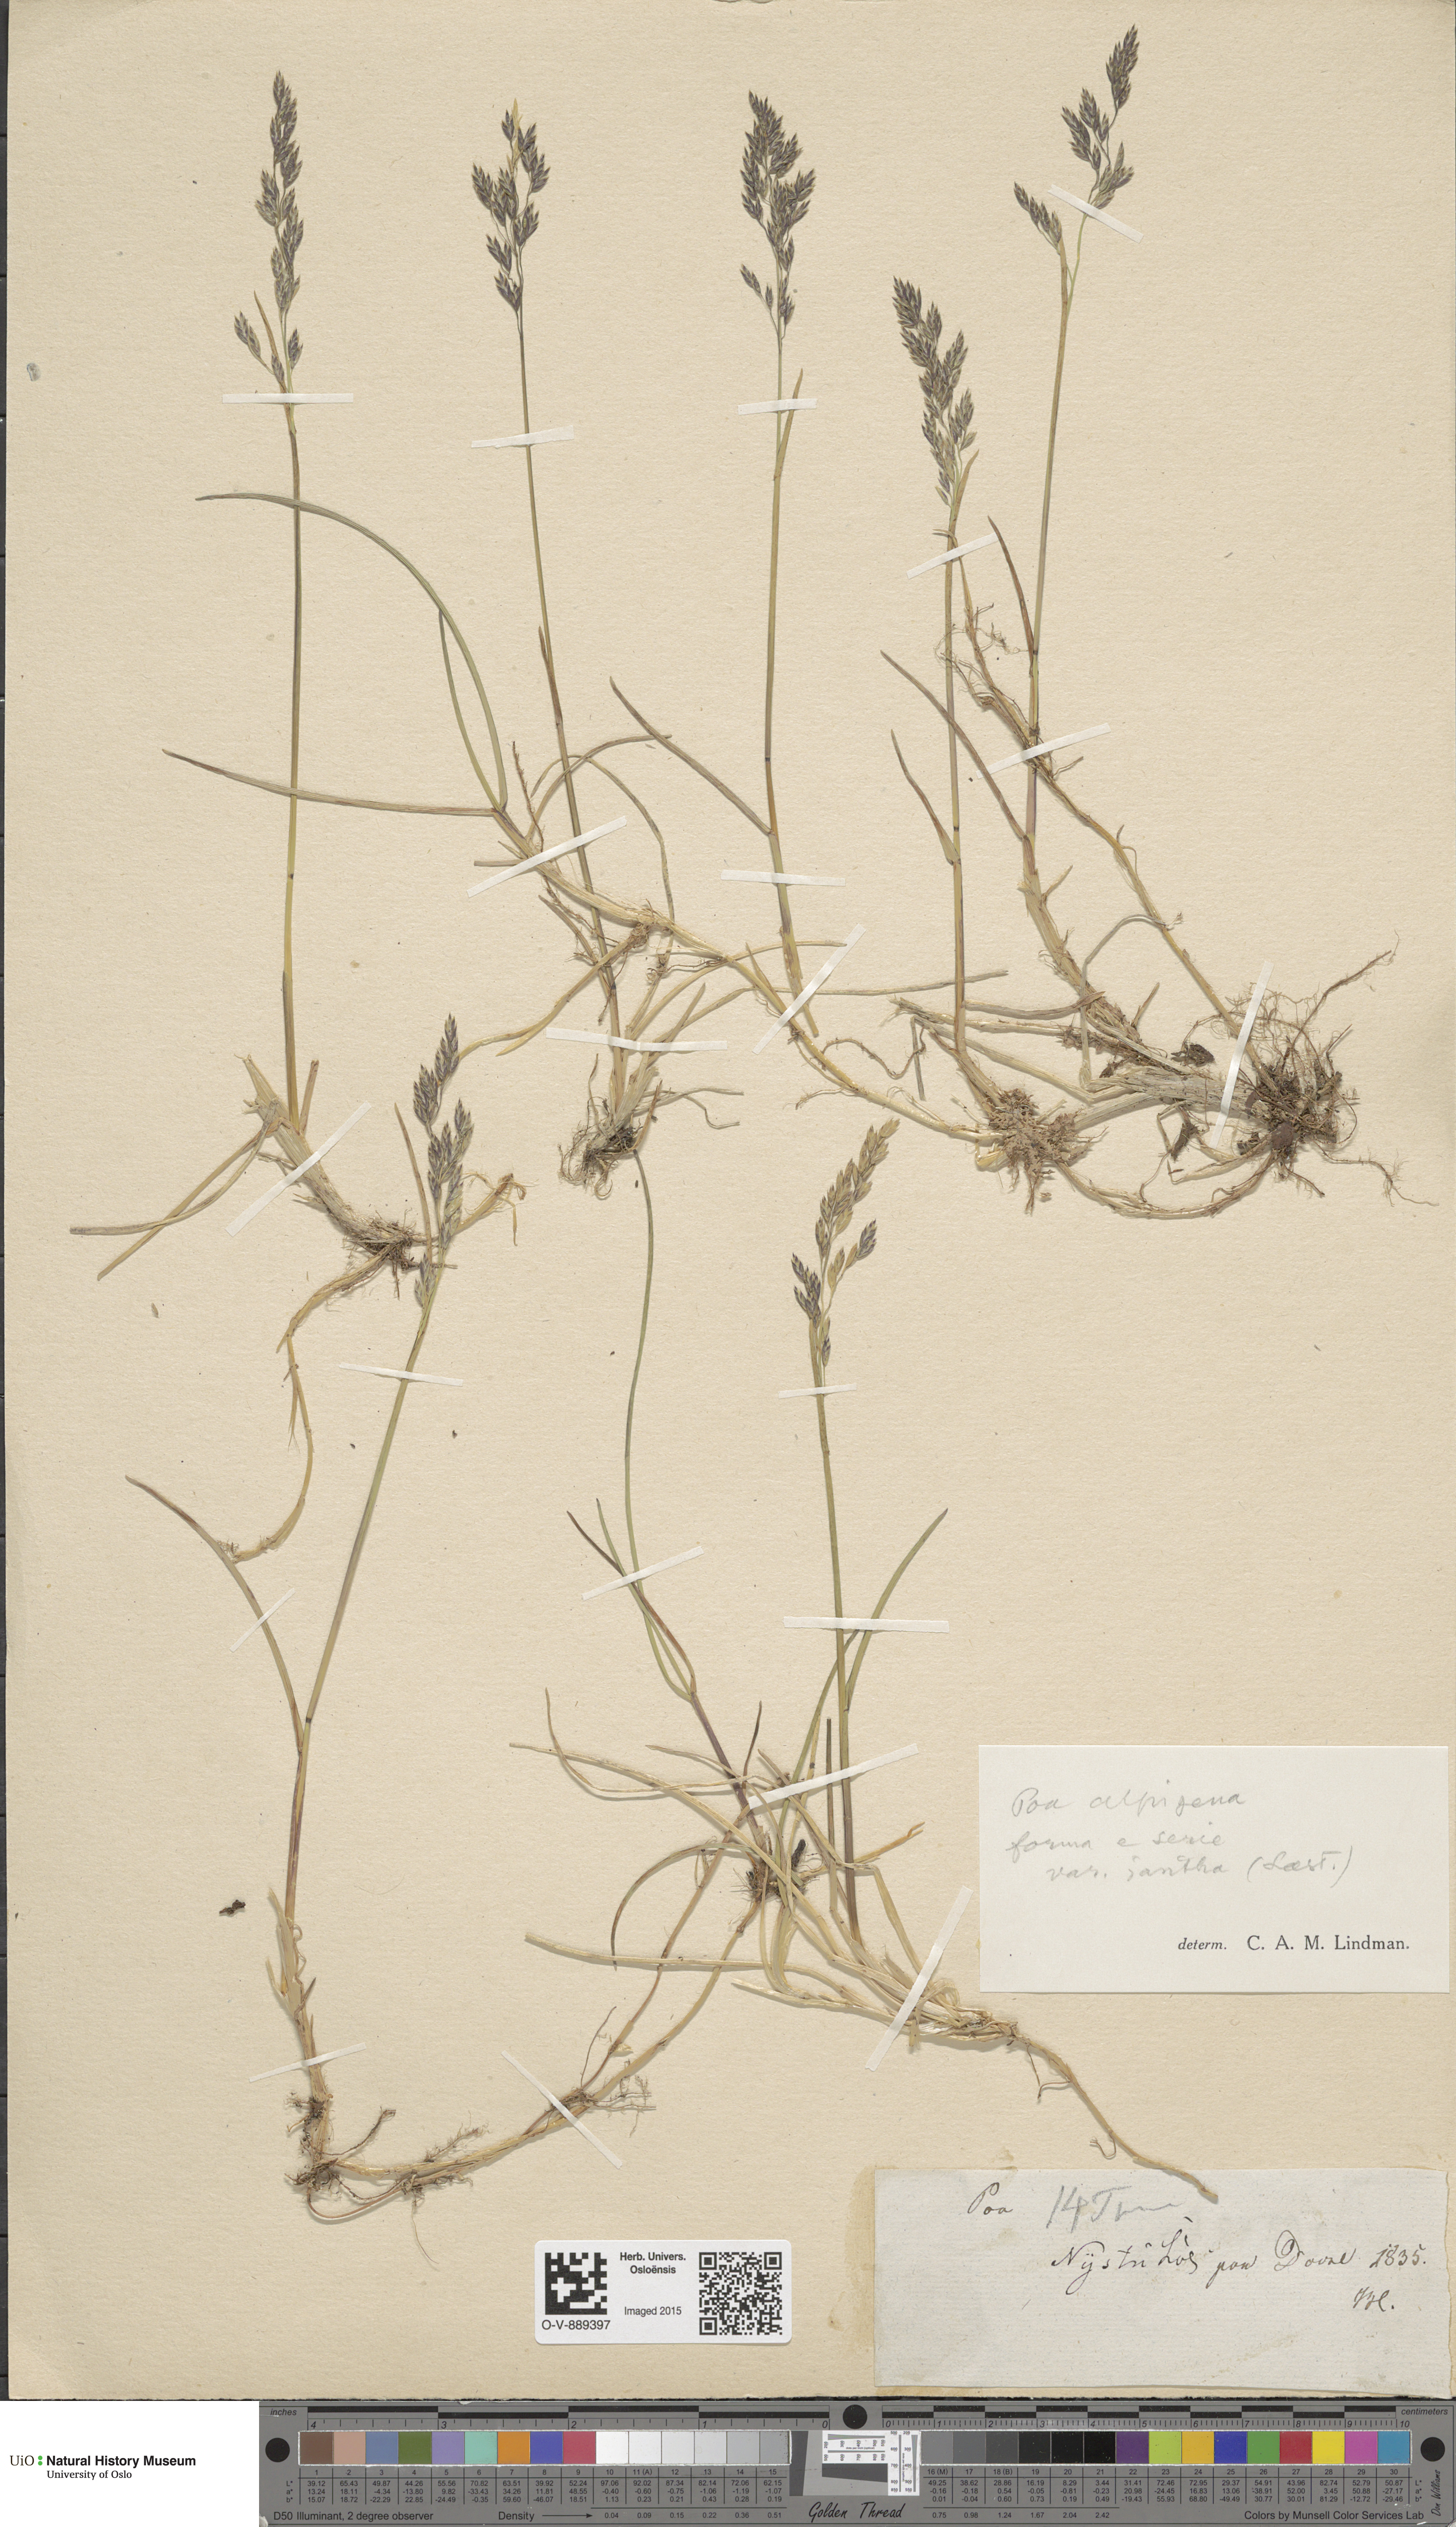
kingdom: Plantae
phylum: Tracheophyta
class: Liliopsida
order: Poales
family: Poaceae
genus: Poa
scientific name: Poa alpigena
